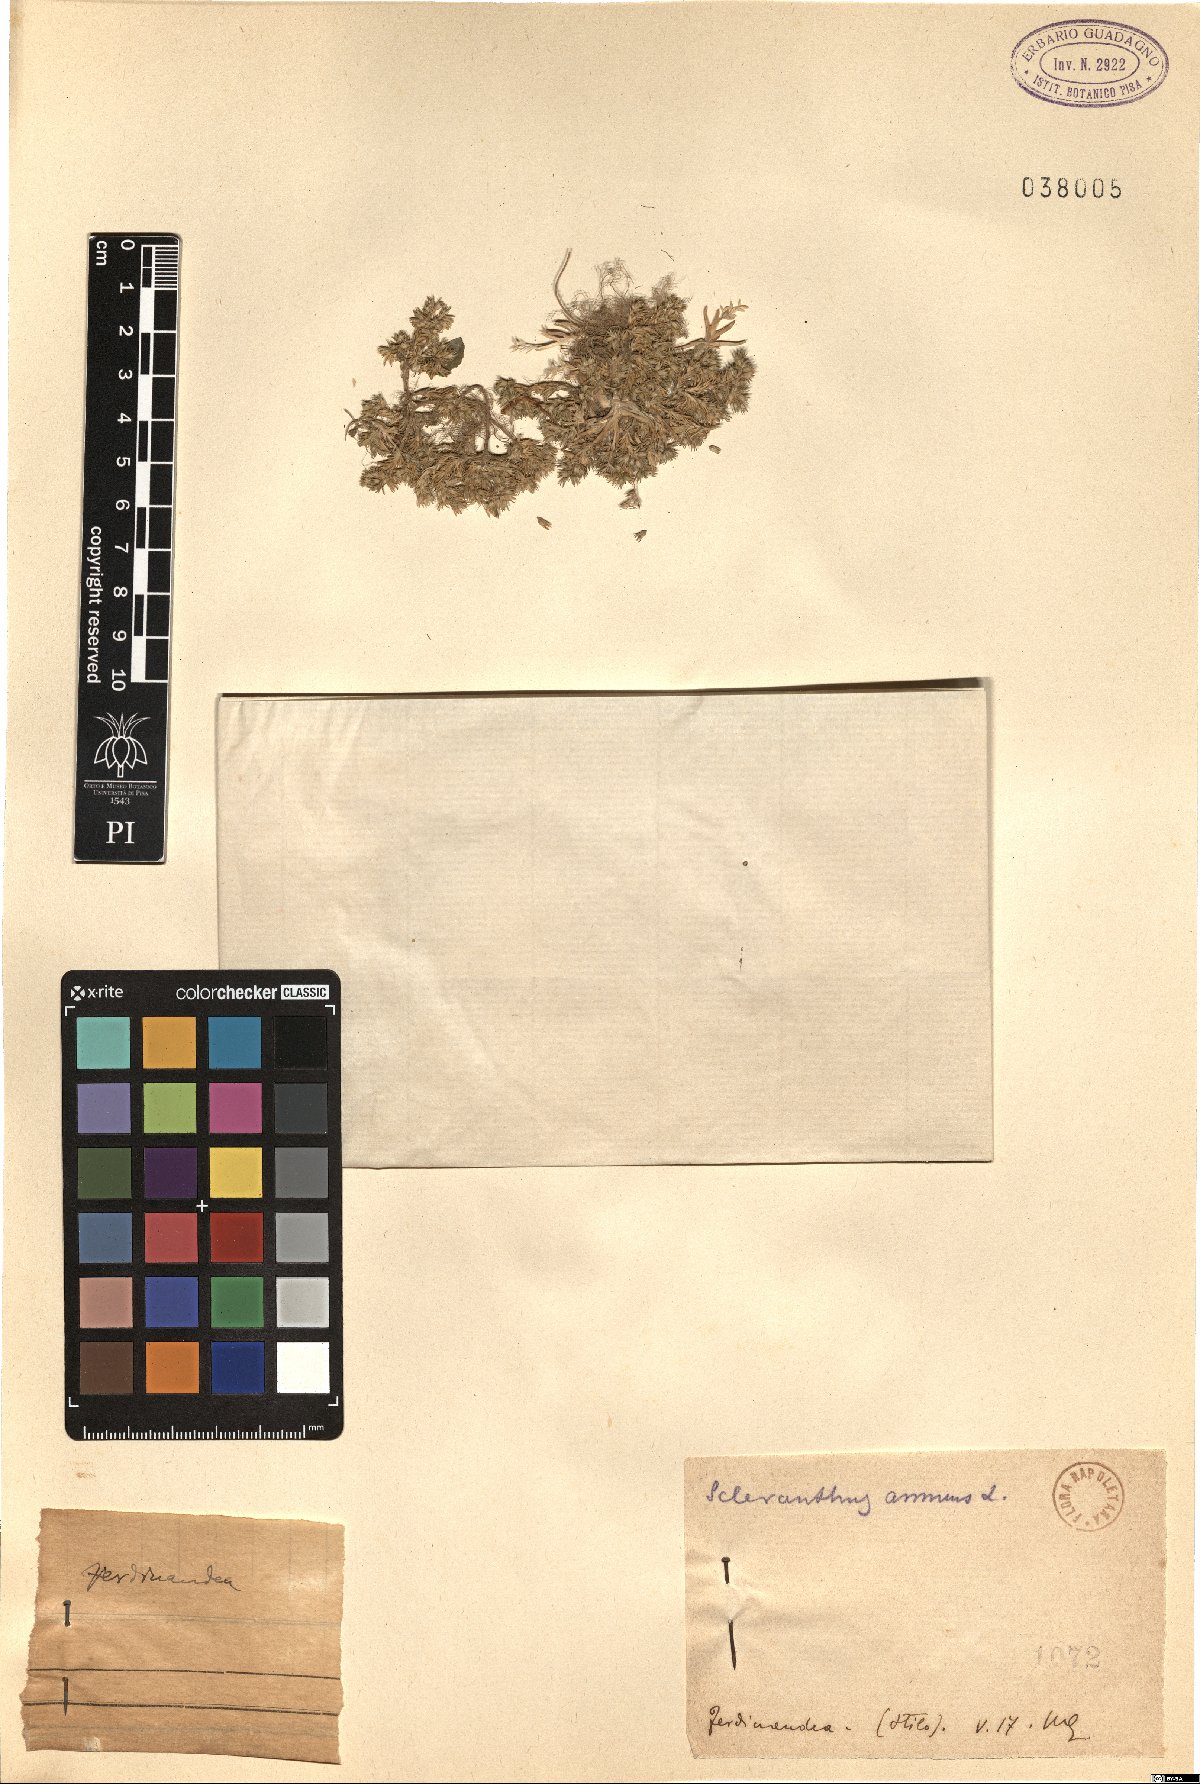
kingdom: Plantae
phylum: Tracheophyta
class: Magnoliopsida
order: Caryophyllales
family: Caryophyllaceae
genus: Scleranthus
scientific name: Scleranthus annuus
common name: Annual knawel
